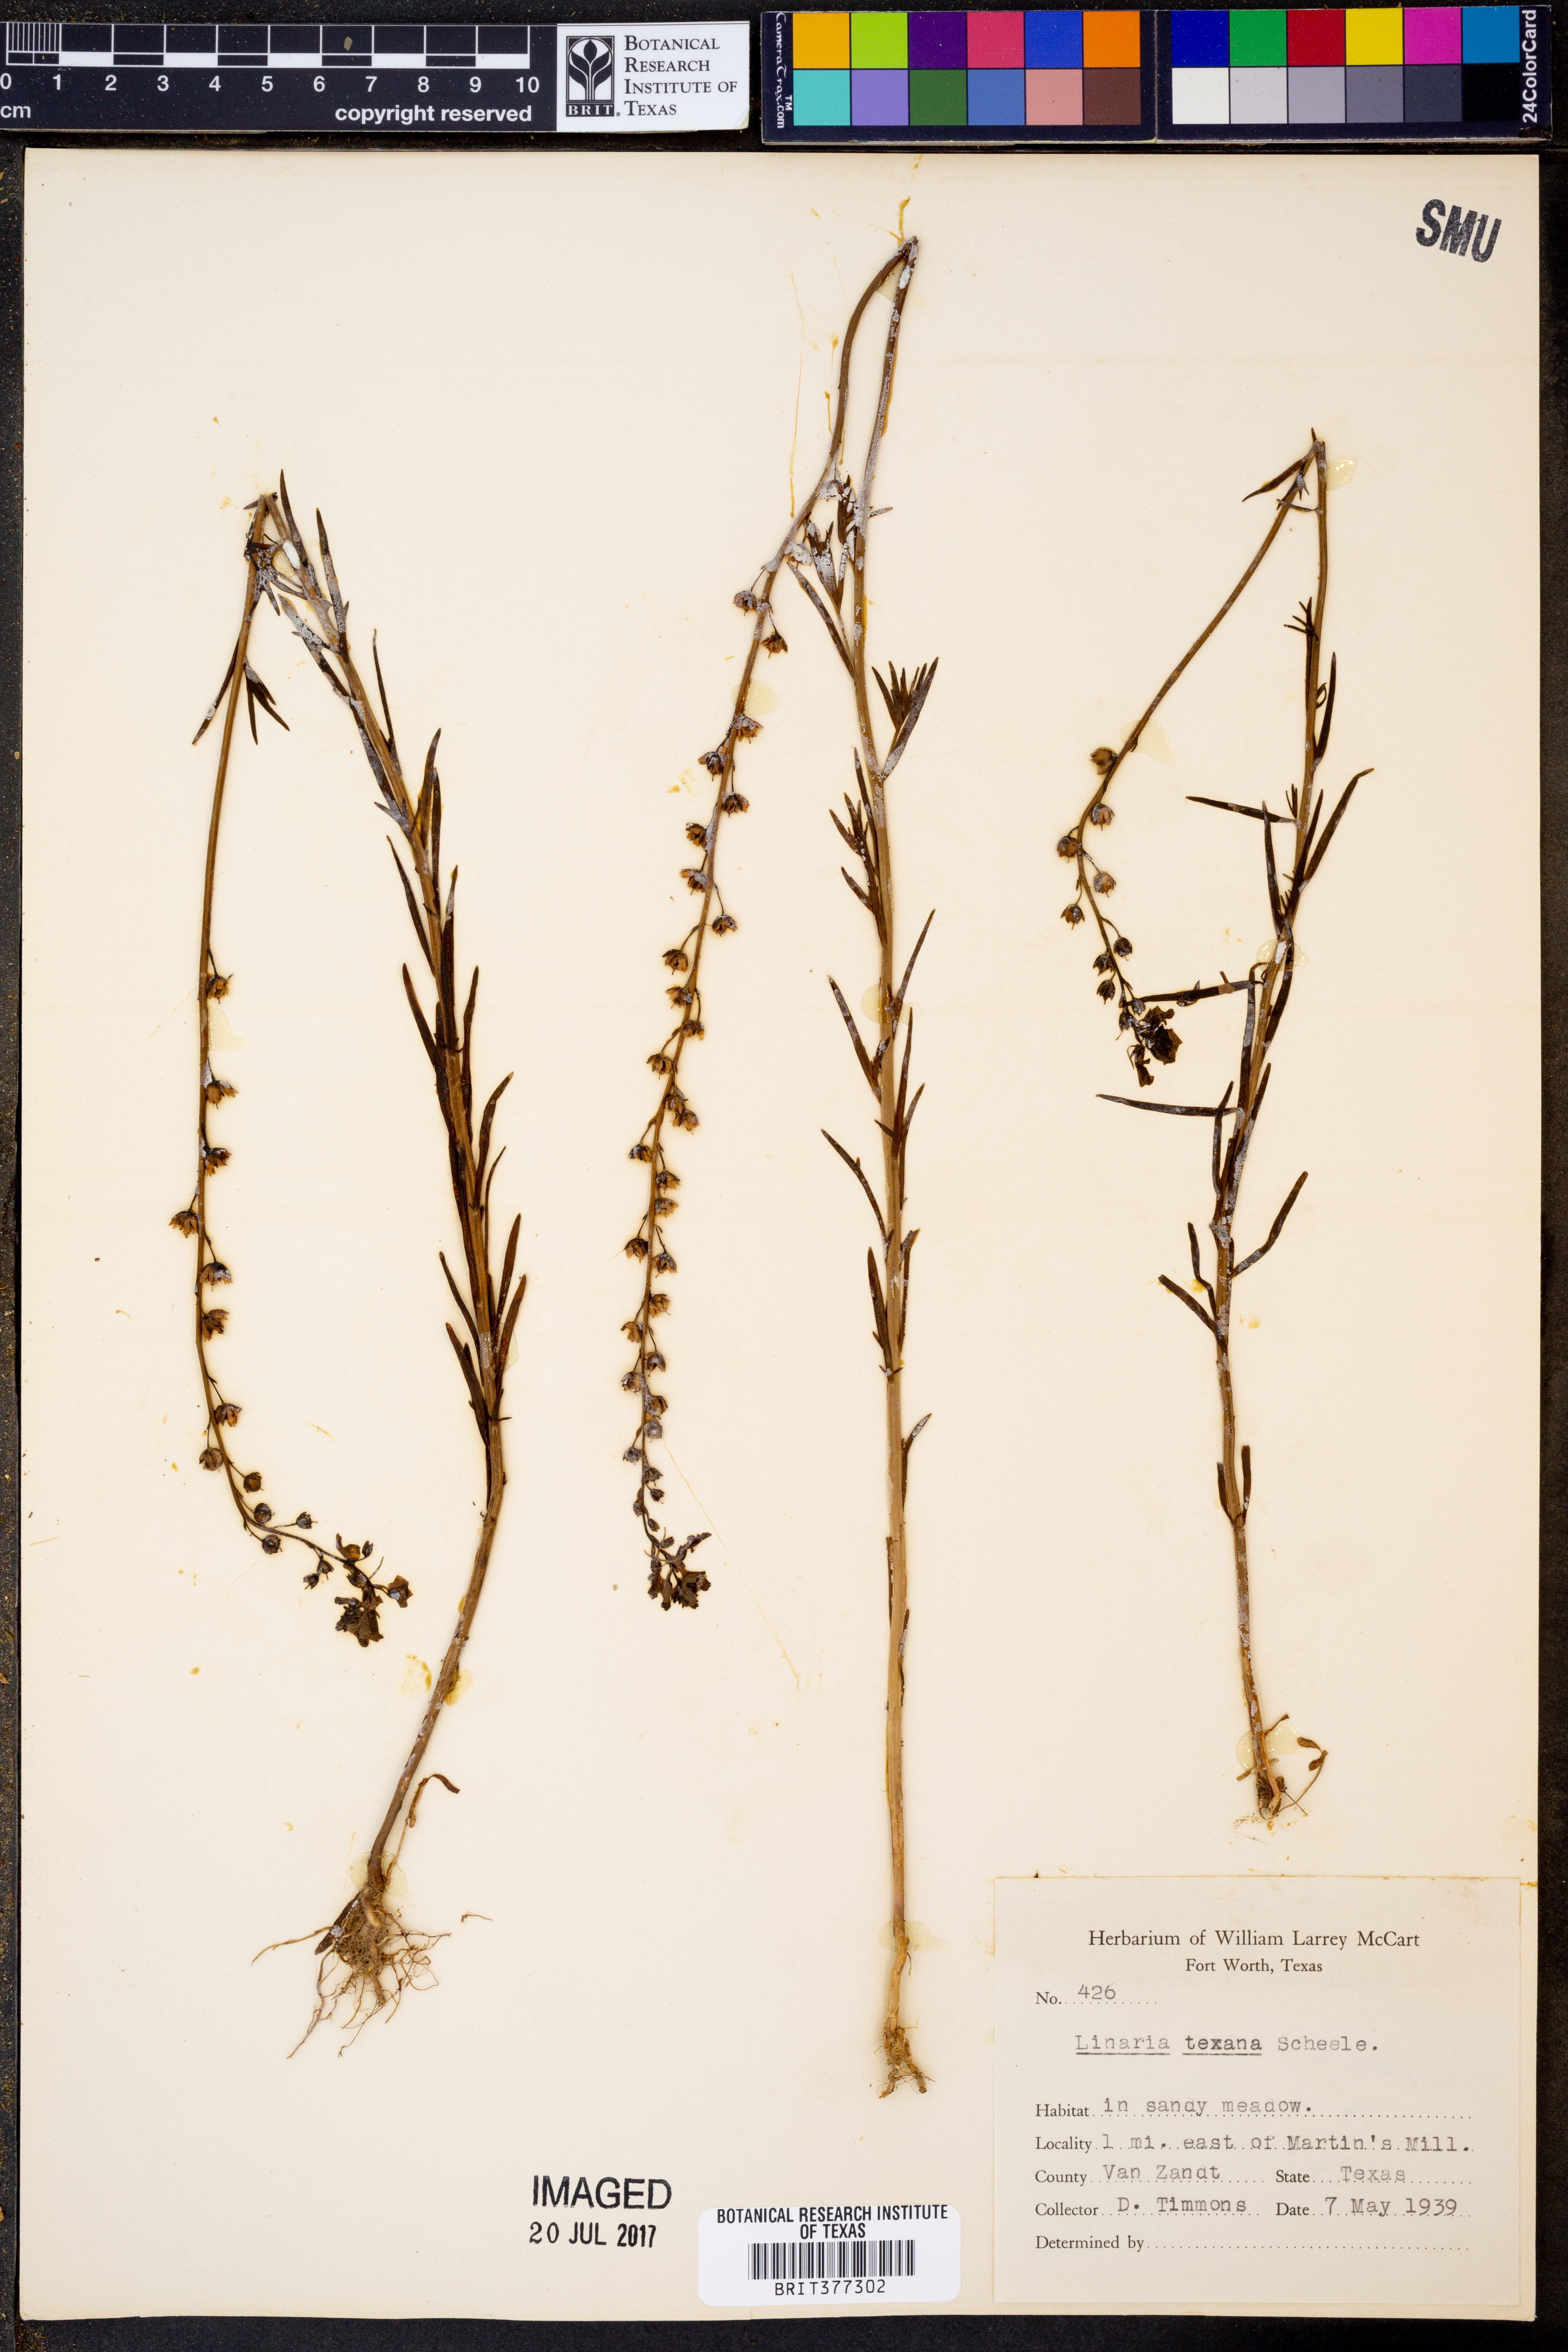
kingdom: Plantae
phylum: Tracheophyta
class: Magnoliopsida
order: Lamiales
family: Plantaginaceae
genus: Nuttallanthus
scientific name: Nuttallanthus texanus
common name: Texas toadflax
